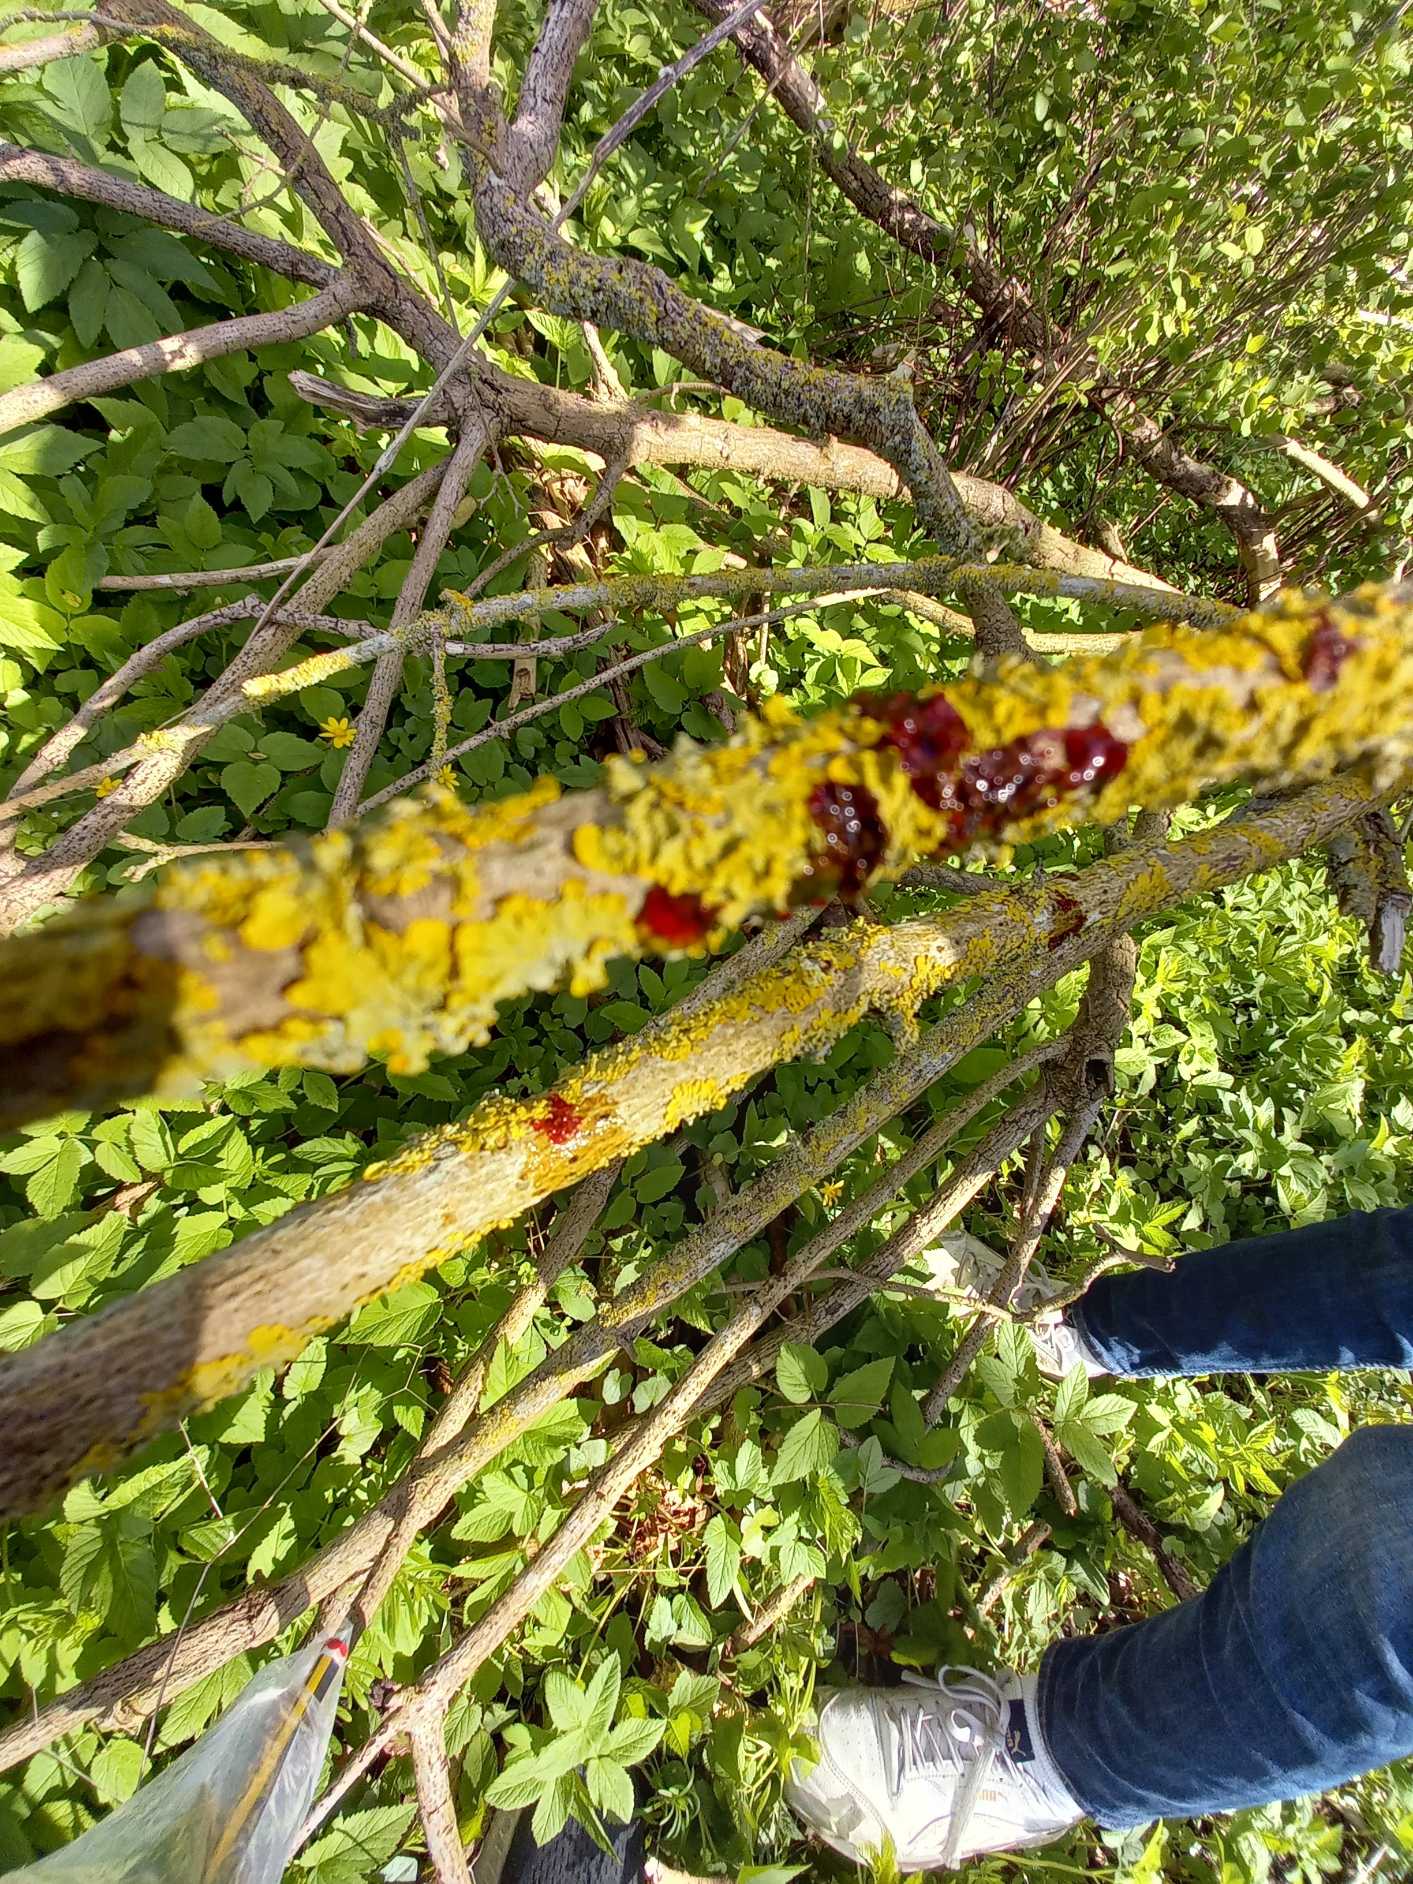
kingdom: Fungi
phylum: Ascomycota
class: Lecanoromycetes
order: Teloschistales
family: Teloschistaceae
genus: Xanthoria
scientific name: Xanthoria parietina
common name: Almindelig væggelav
